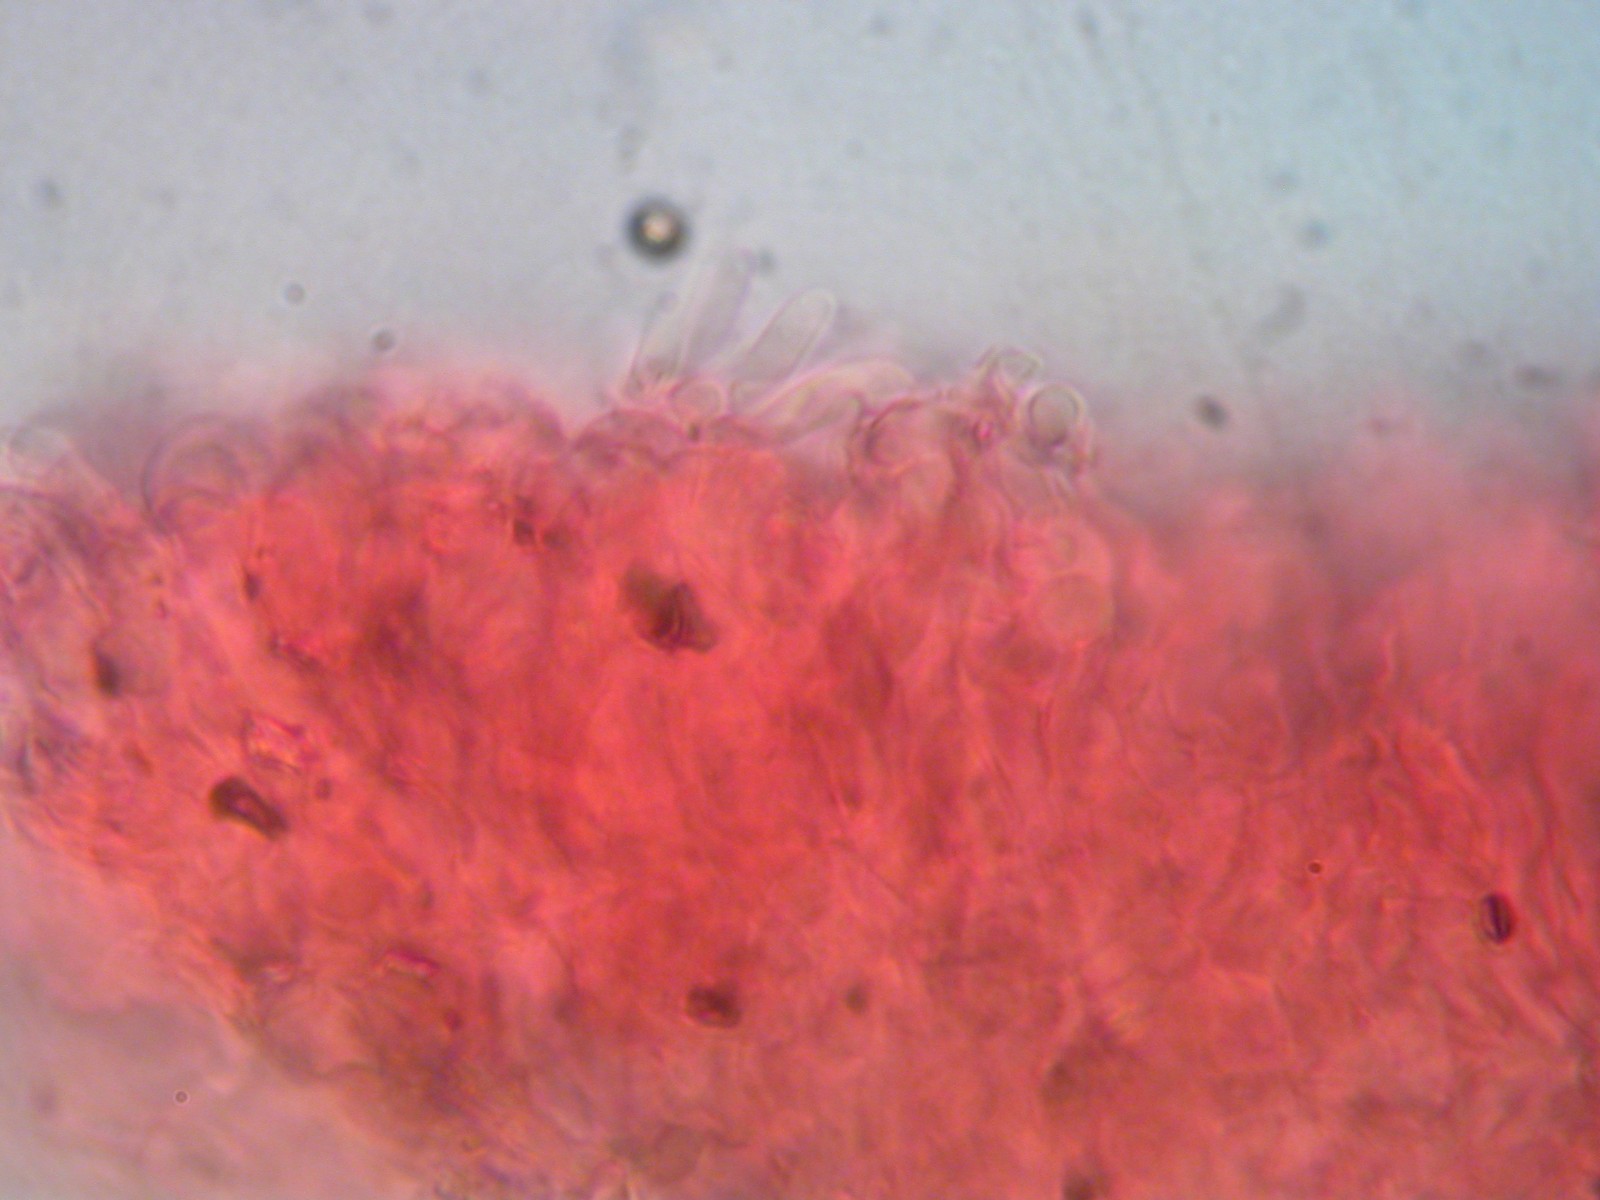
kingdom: Fungi
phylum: Basidiomycota
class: Agaricomycetes
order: Corticiales
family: Corticiaceae
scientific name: Corticiaceae
